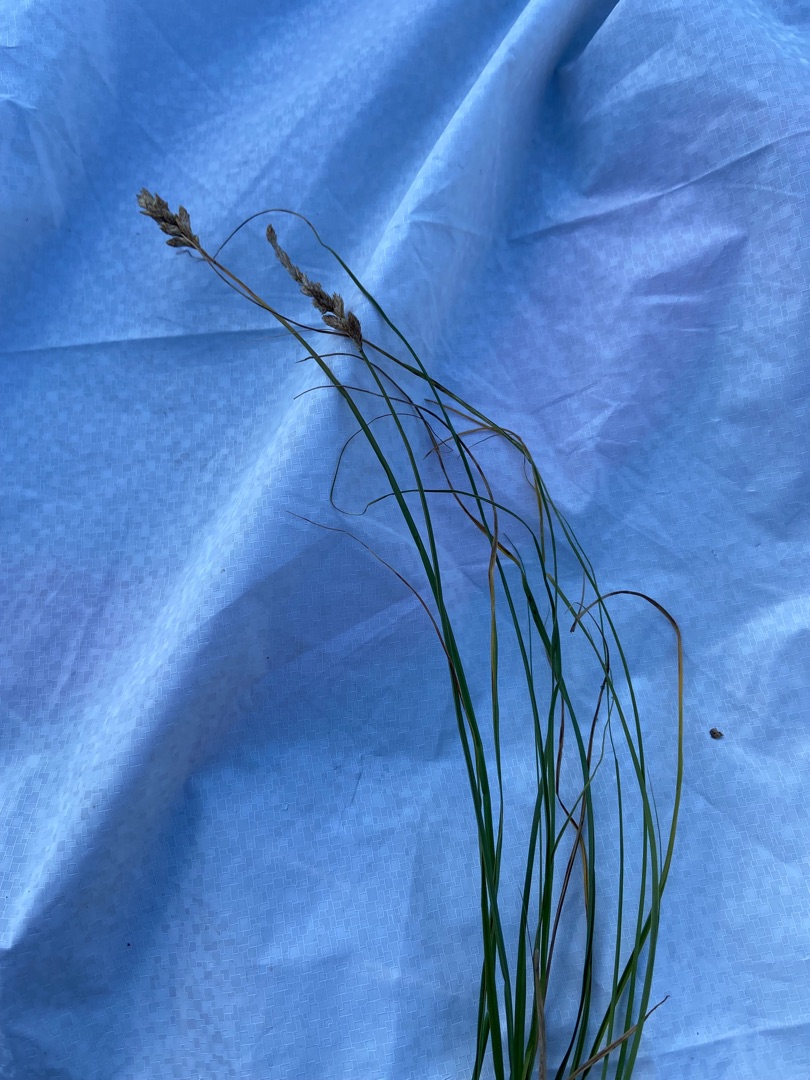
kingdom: Plantae
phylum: Tracheophyta
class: Liliopsida
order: Poales
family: Cyperaceae
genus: Carex
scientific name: Carex disticha
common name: Toradet star
